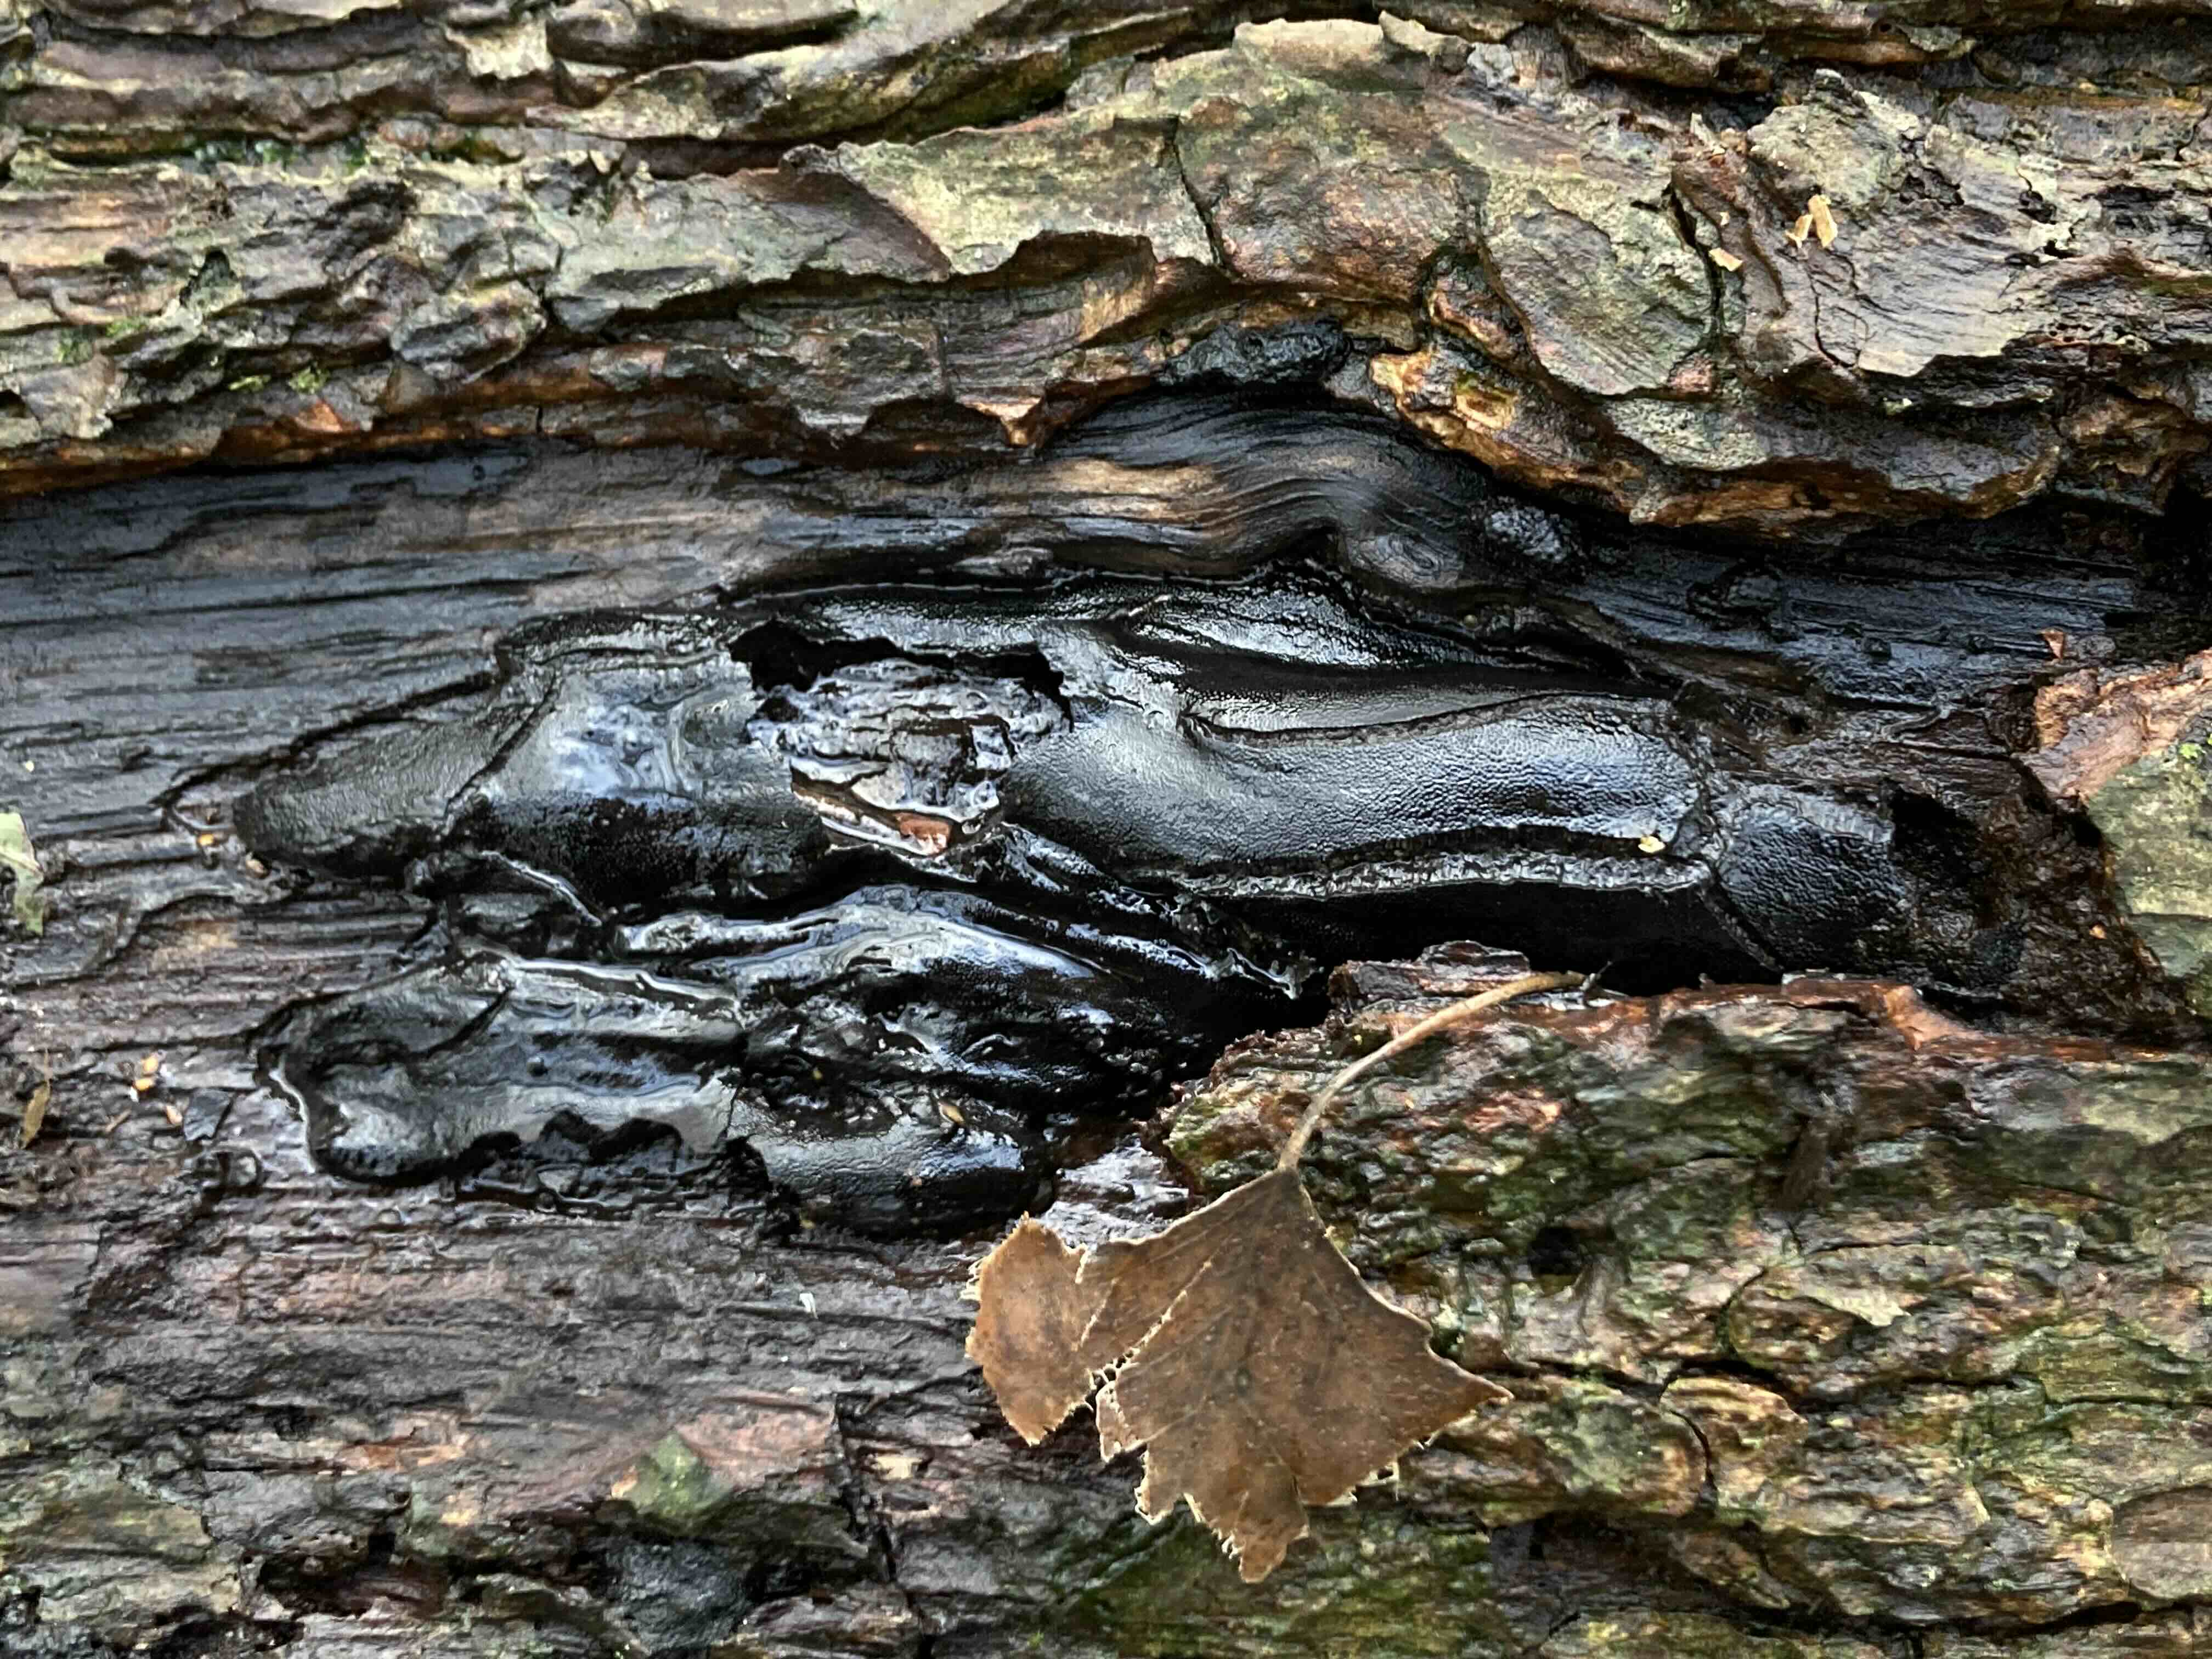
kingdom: Fungi
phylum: Ascomycota
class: Sordariomycetes
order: Boliniales
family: Boliniaceae
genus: Camarops
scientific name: Camarops polysperma
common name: elle-kulsnegl
